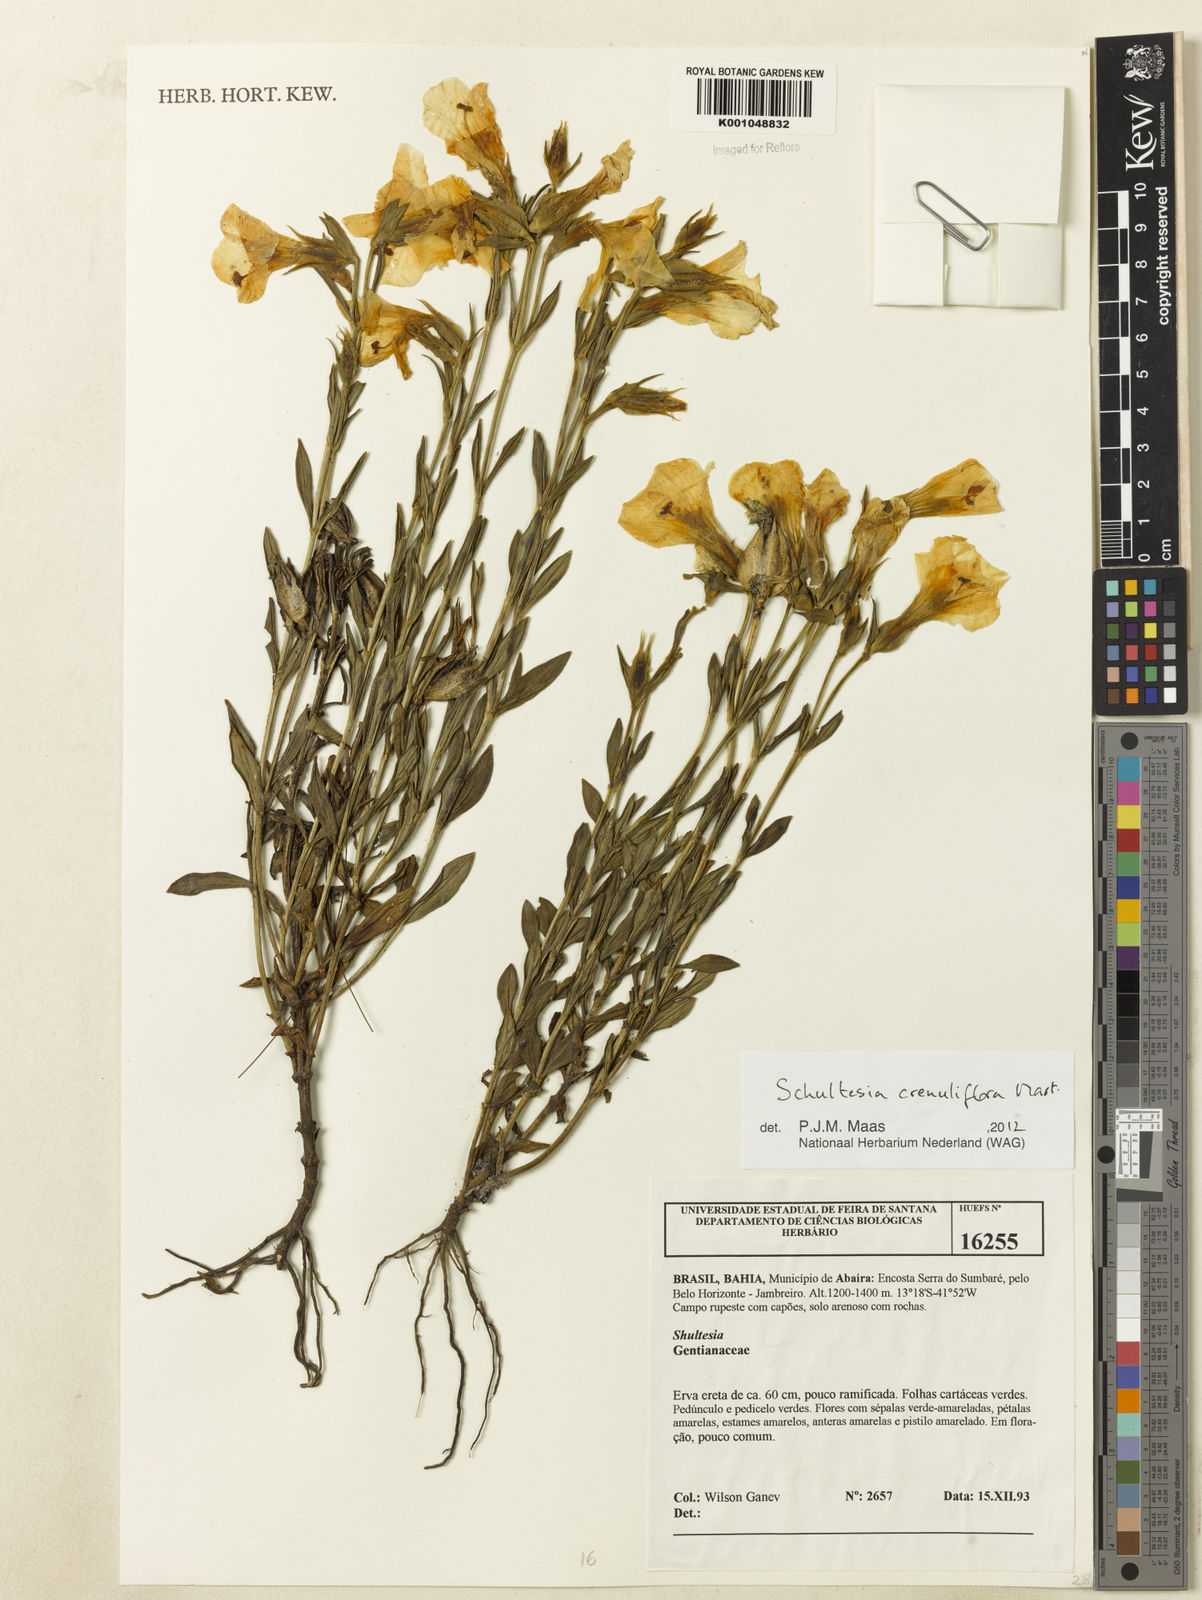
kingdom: Plantae
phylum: Tracheophyta
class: Magnoliopsida
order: Gentianales
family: Gentianaceae
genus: Schultesia
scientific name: Schultesia crenuliflora
